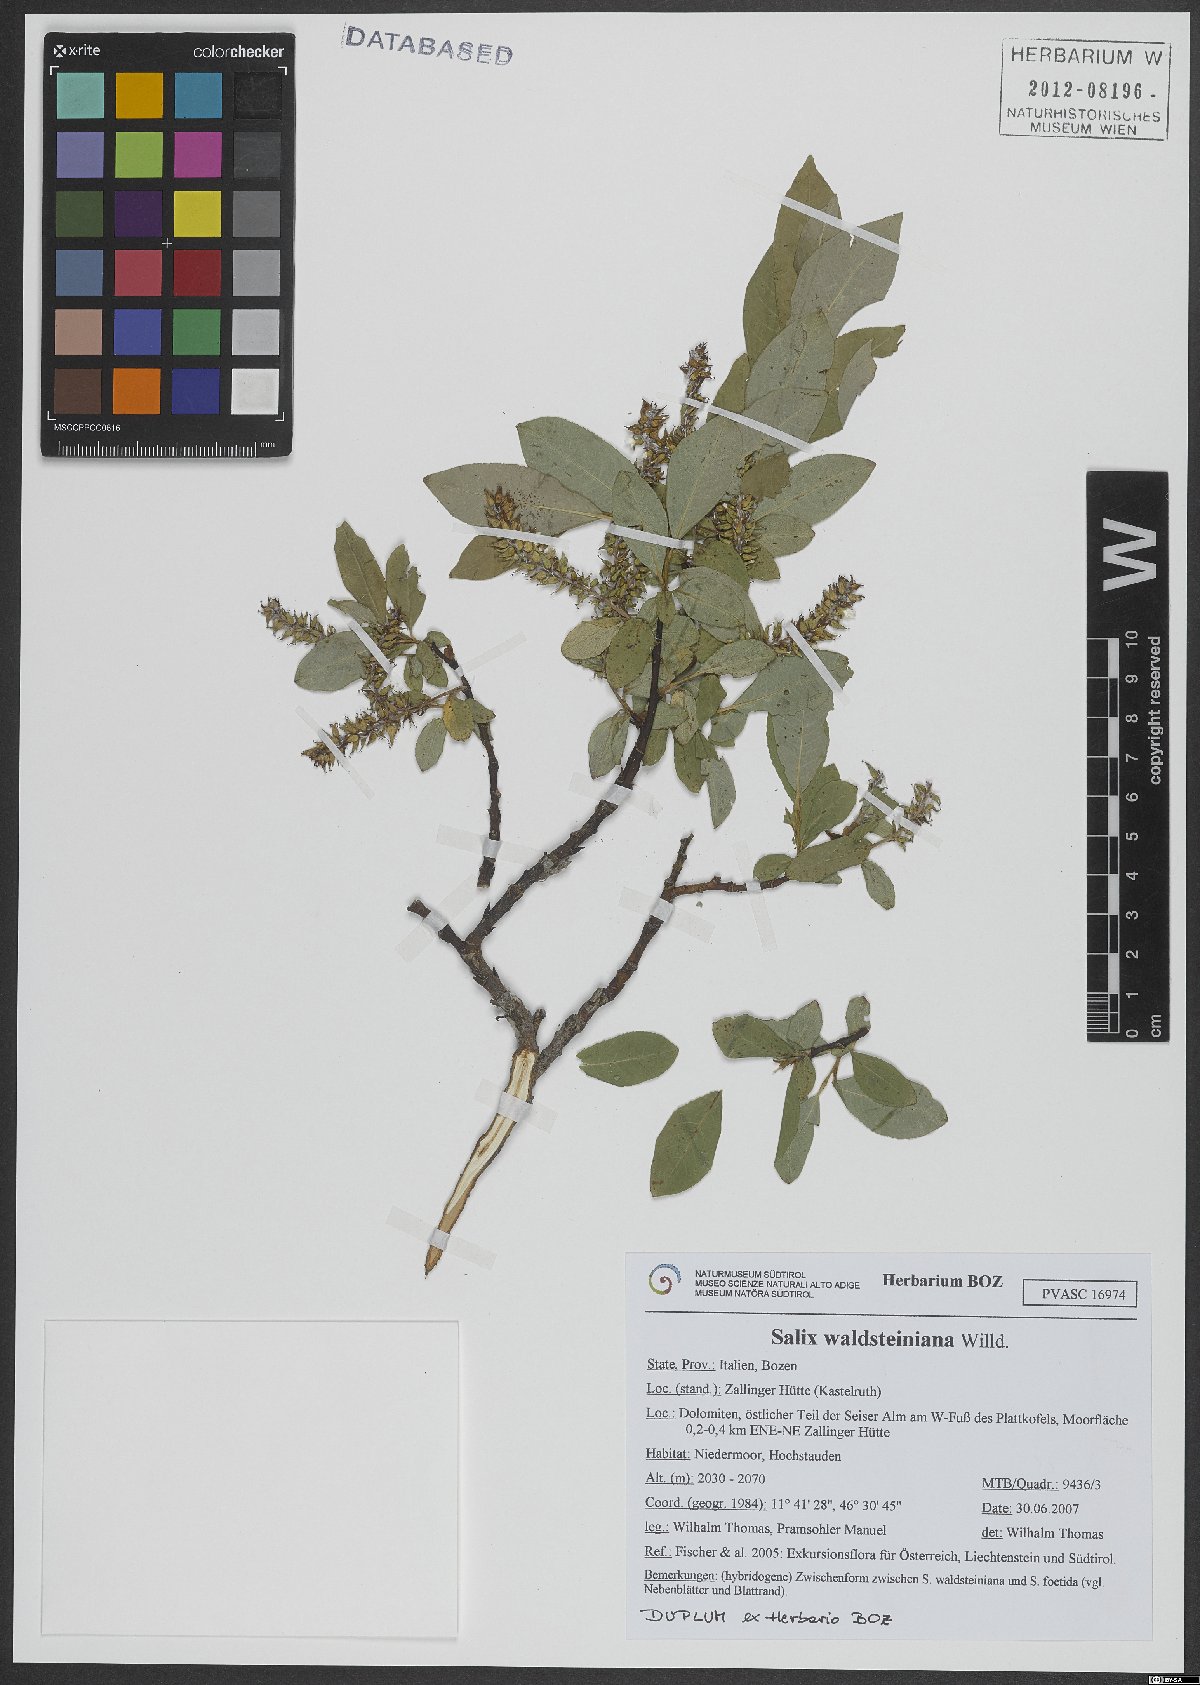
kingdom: Plantae
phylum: Tracheophyta
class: Magnoliopsida
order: Malpighiales
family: Salicaceae
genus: Salix
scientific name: Salix waldsteiniana
